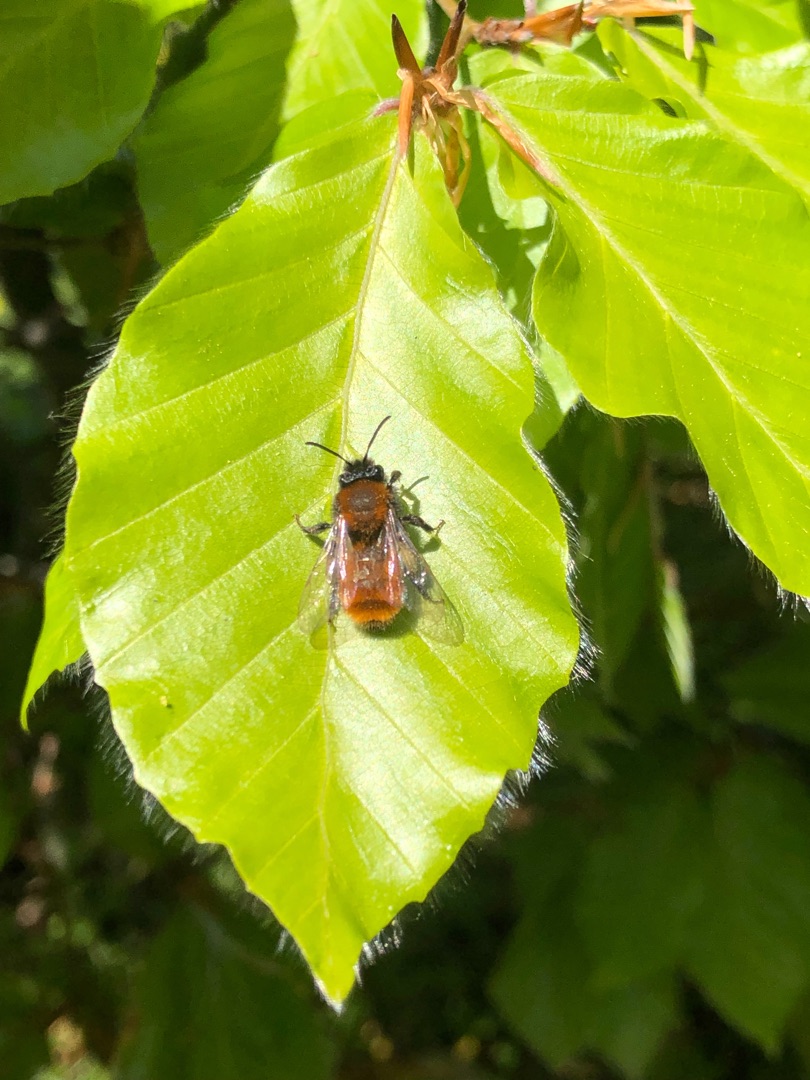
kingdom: Animalia
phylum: Arthropoda
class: Insecta
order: Hymenoptera
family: Andrenidae
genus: Andrena
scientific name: Andrena fulva
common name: Rødpelset jordbi
